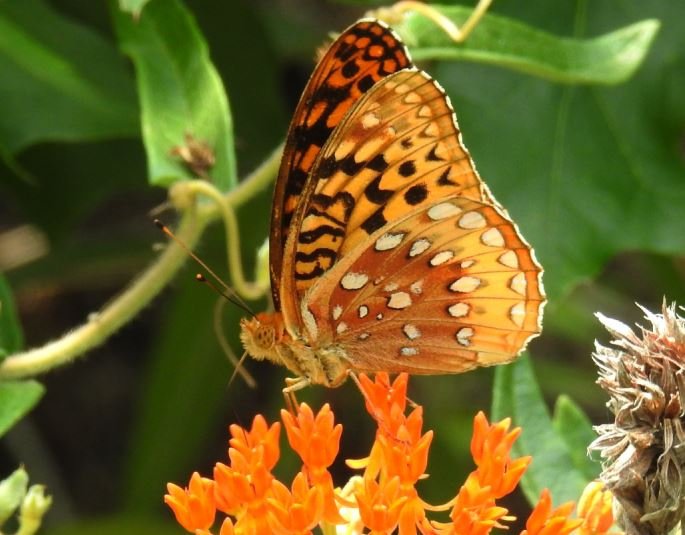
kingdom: Animalia
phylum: Arthropoda
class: Insecta
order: Lepidoptera
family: Nymphalidae
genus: Speyeria
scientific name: Speyeria cybele
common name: Great Spangled Fritillary
